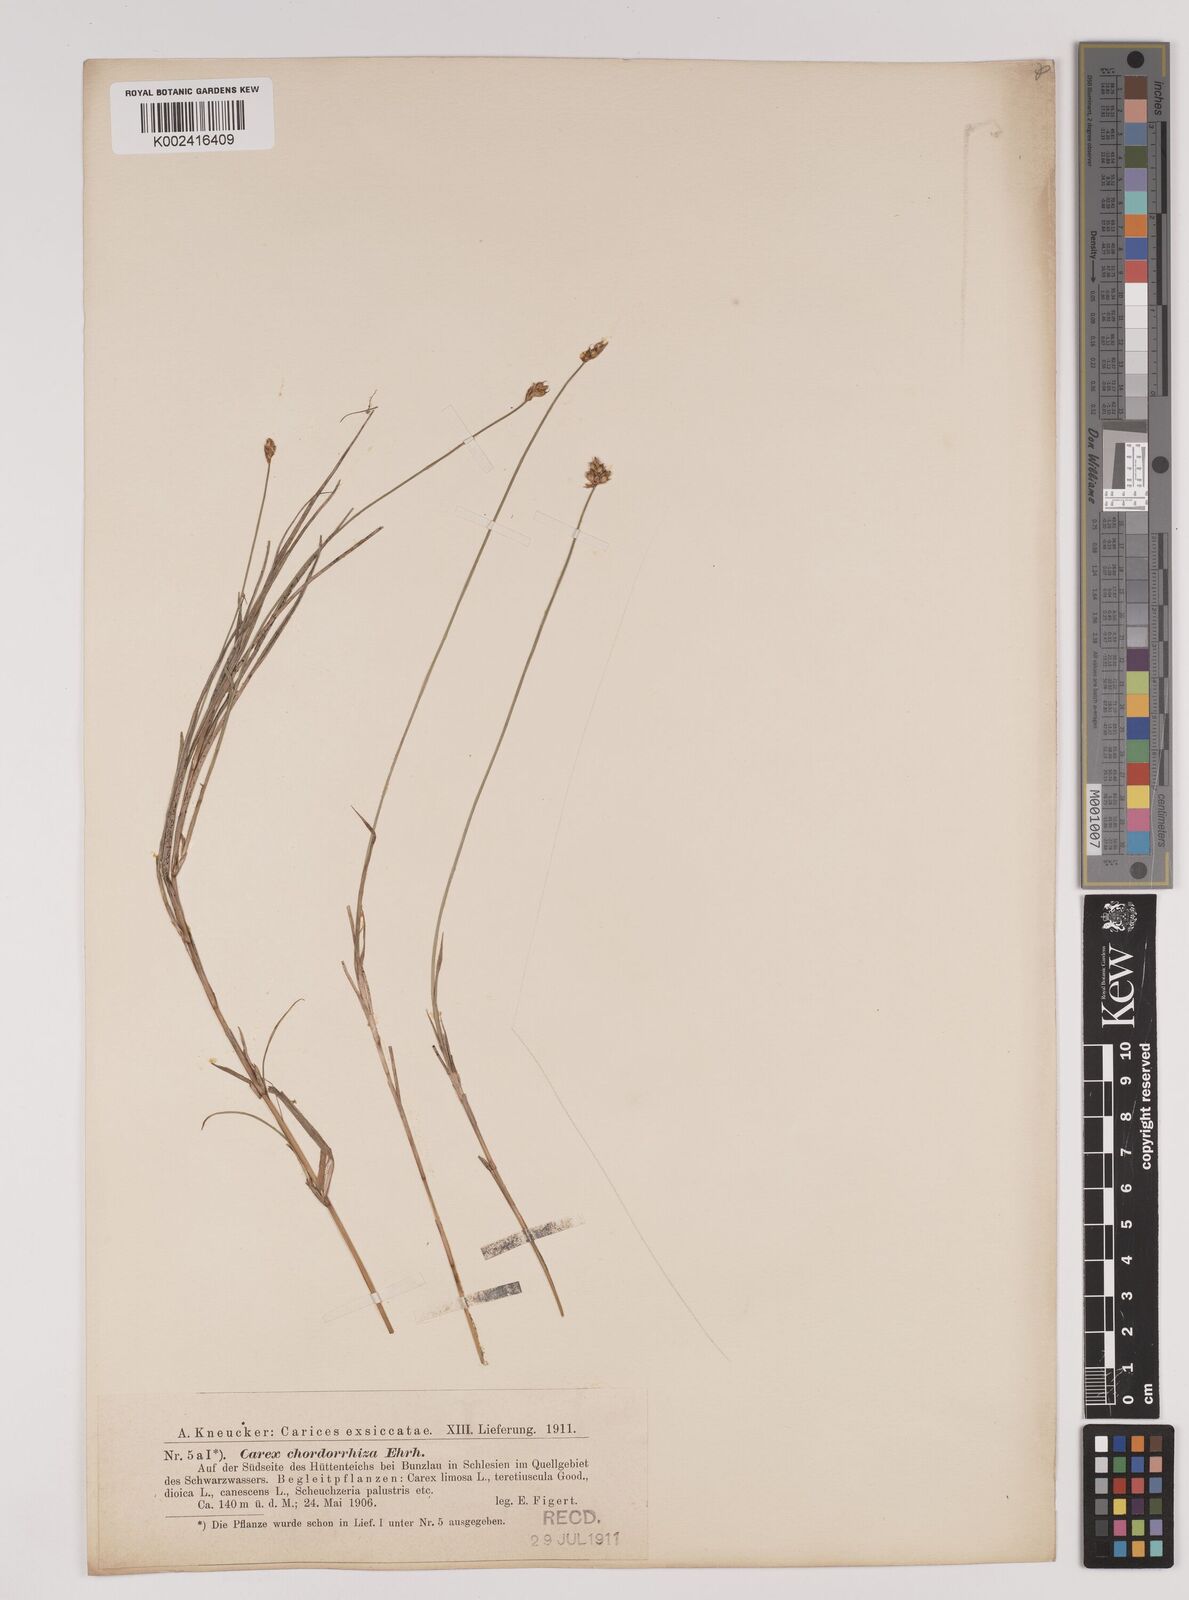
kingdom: Plantae
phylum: Tracheophyta
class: Liliopsida
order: Poales
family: Cyperaceae
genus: Carex
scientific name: Carex chordorrhiza
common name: String sedge
